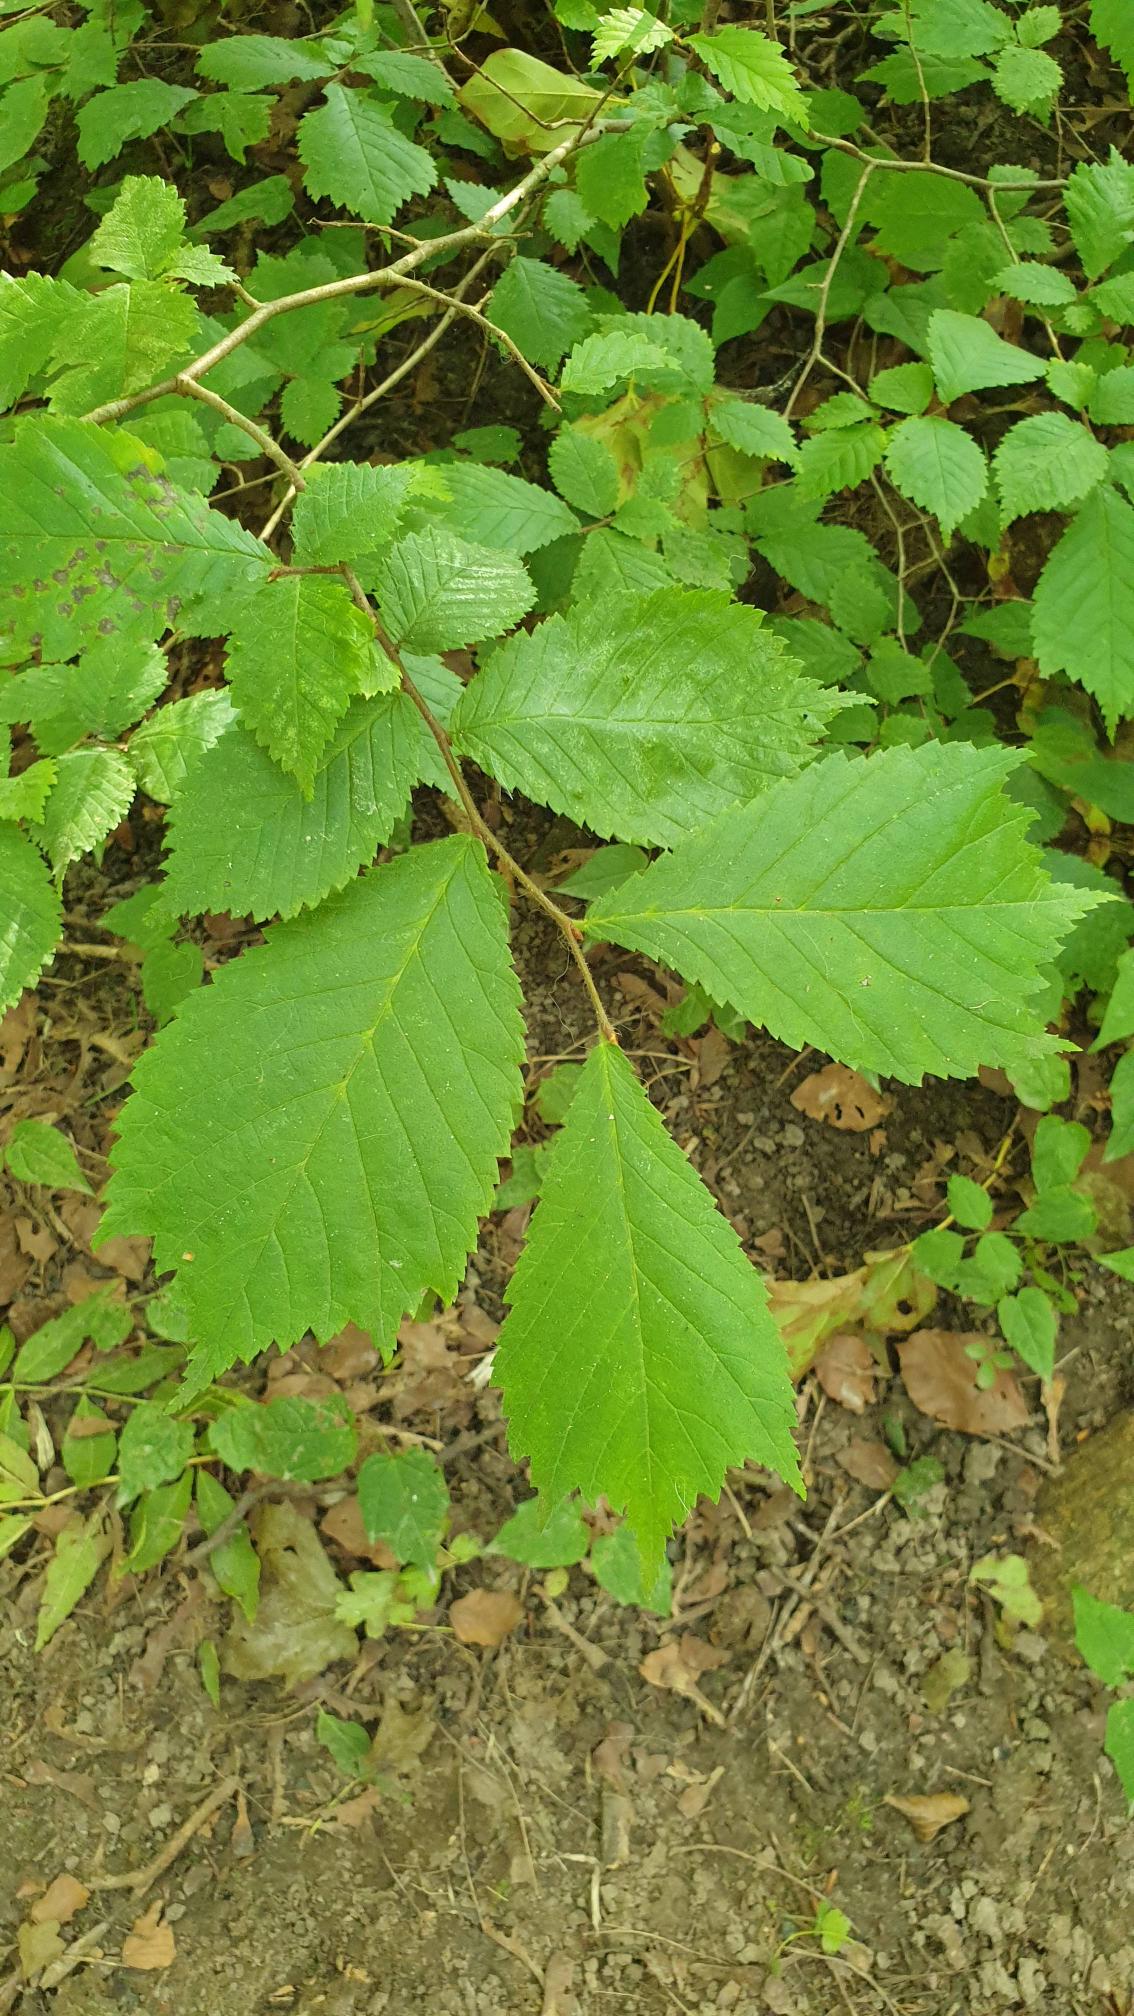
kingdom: Plantae
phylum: Tracheophyta
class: Magnoliopsida
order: Rosales
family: Ulmaceae
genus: Ulmus
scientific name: Ulmus glabra
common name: Skov-elm/storbladet elm
